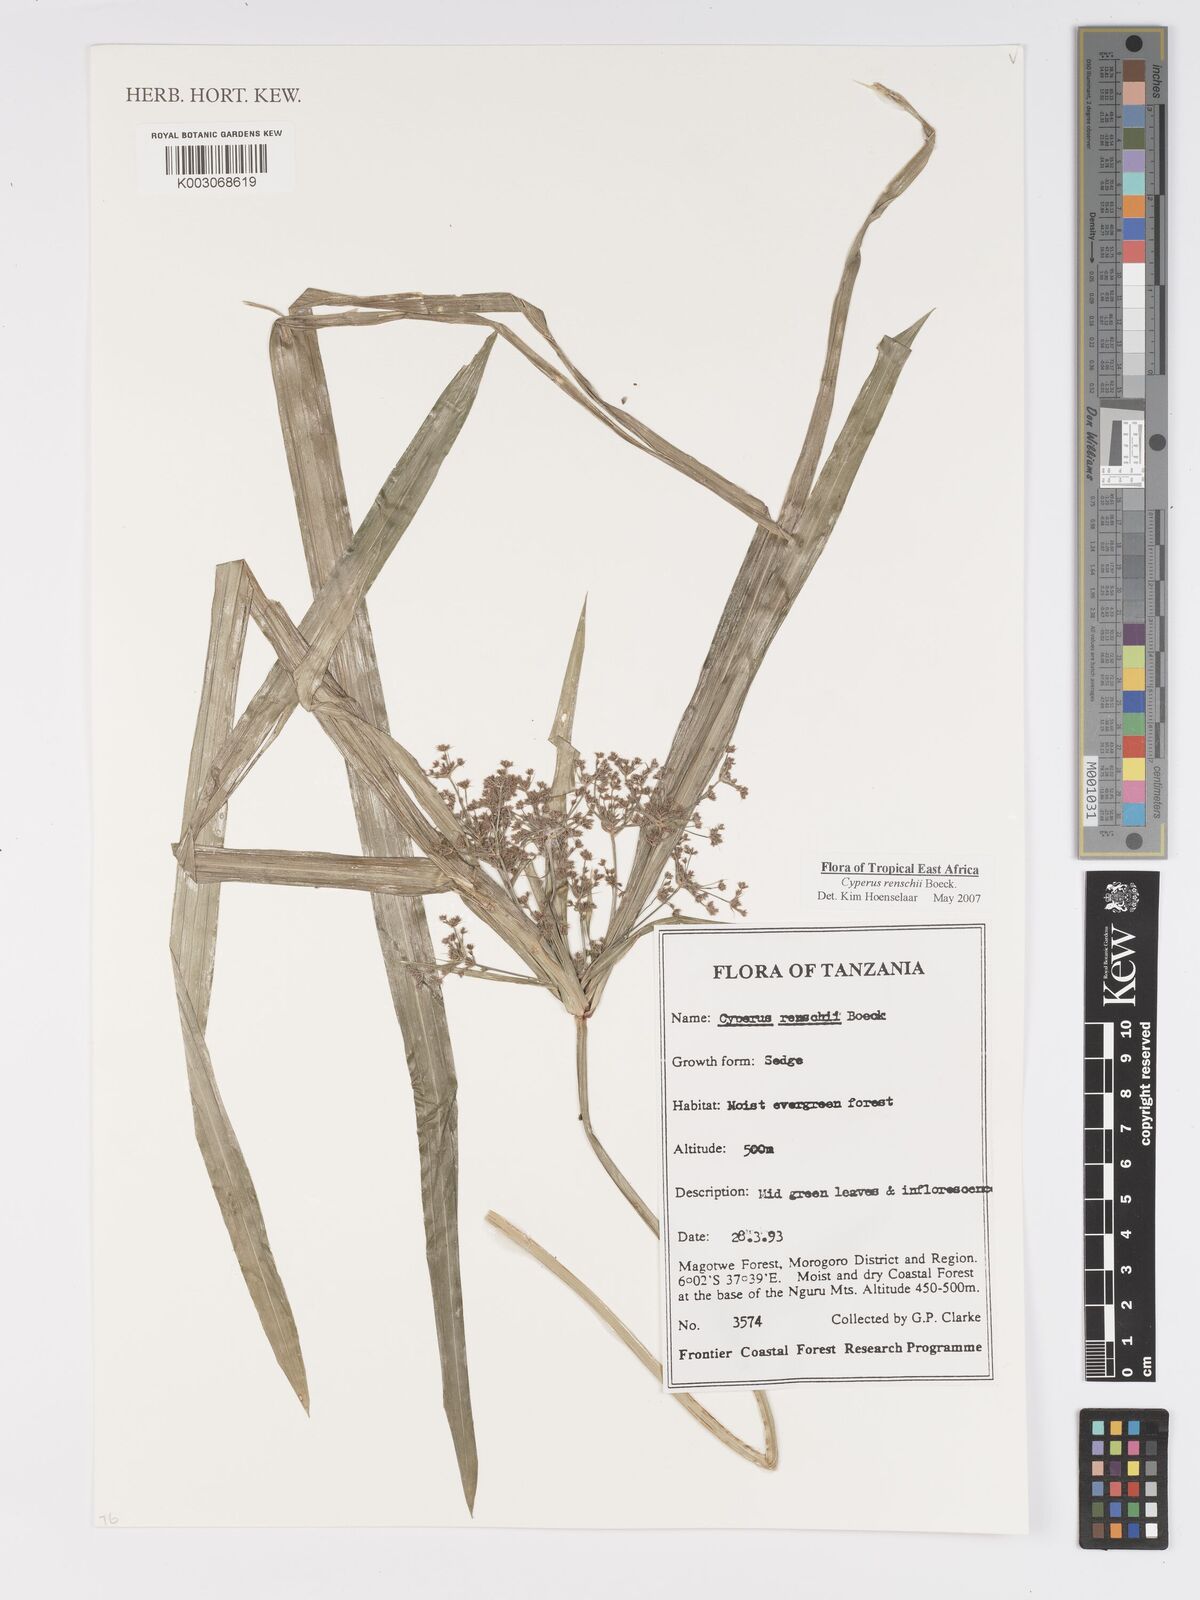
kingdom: Plantae
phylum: Tracheophyta
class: Liliopsida
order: Poales
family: Cyperaceae
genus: Cyperus
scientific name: Cyperus renschii
